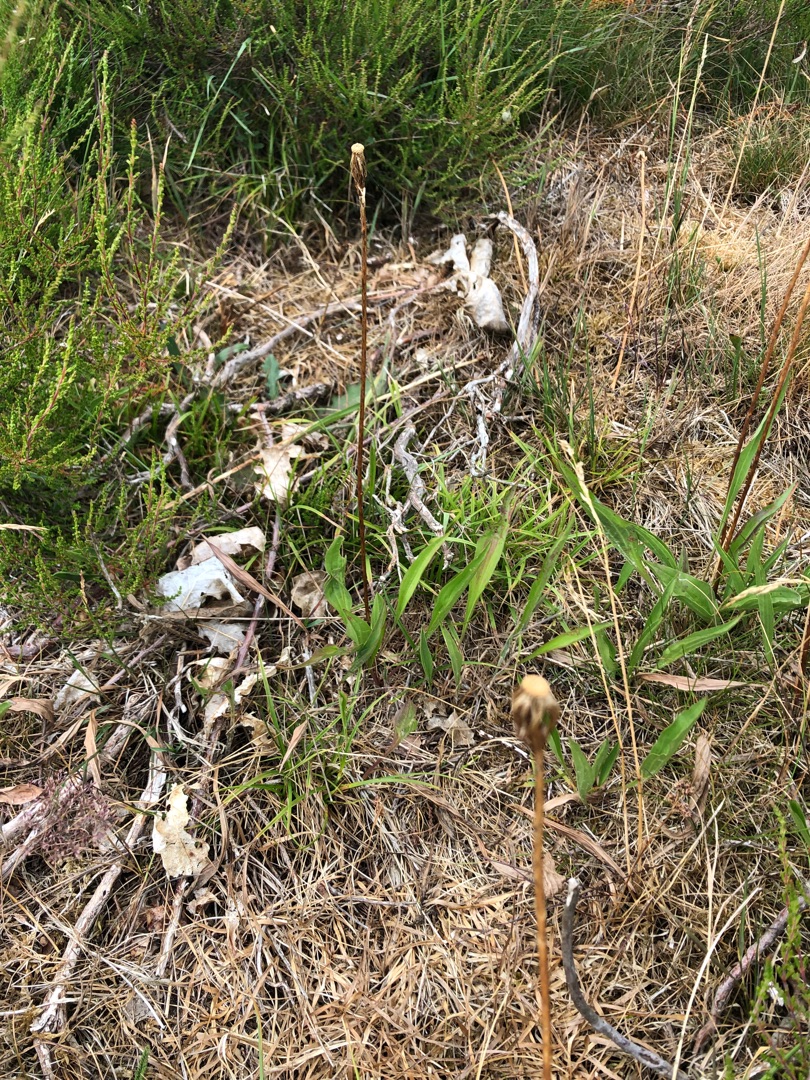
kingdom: Plantae
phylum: Tracheophyta
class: Magnoliopsida
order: Asterales
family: Asteraceae
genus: Scorzonera
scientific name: Scorzonera humilis
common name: Lav skorsoner
